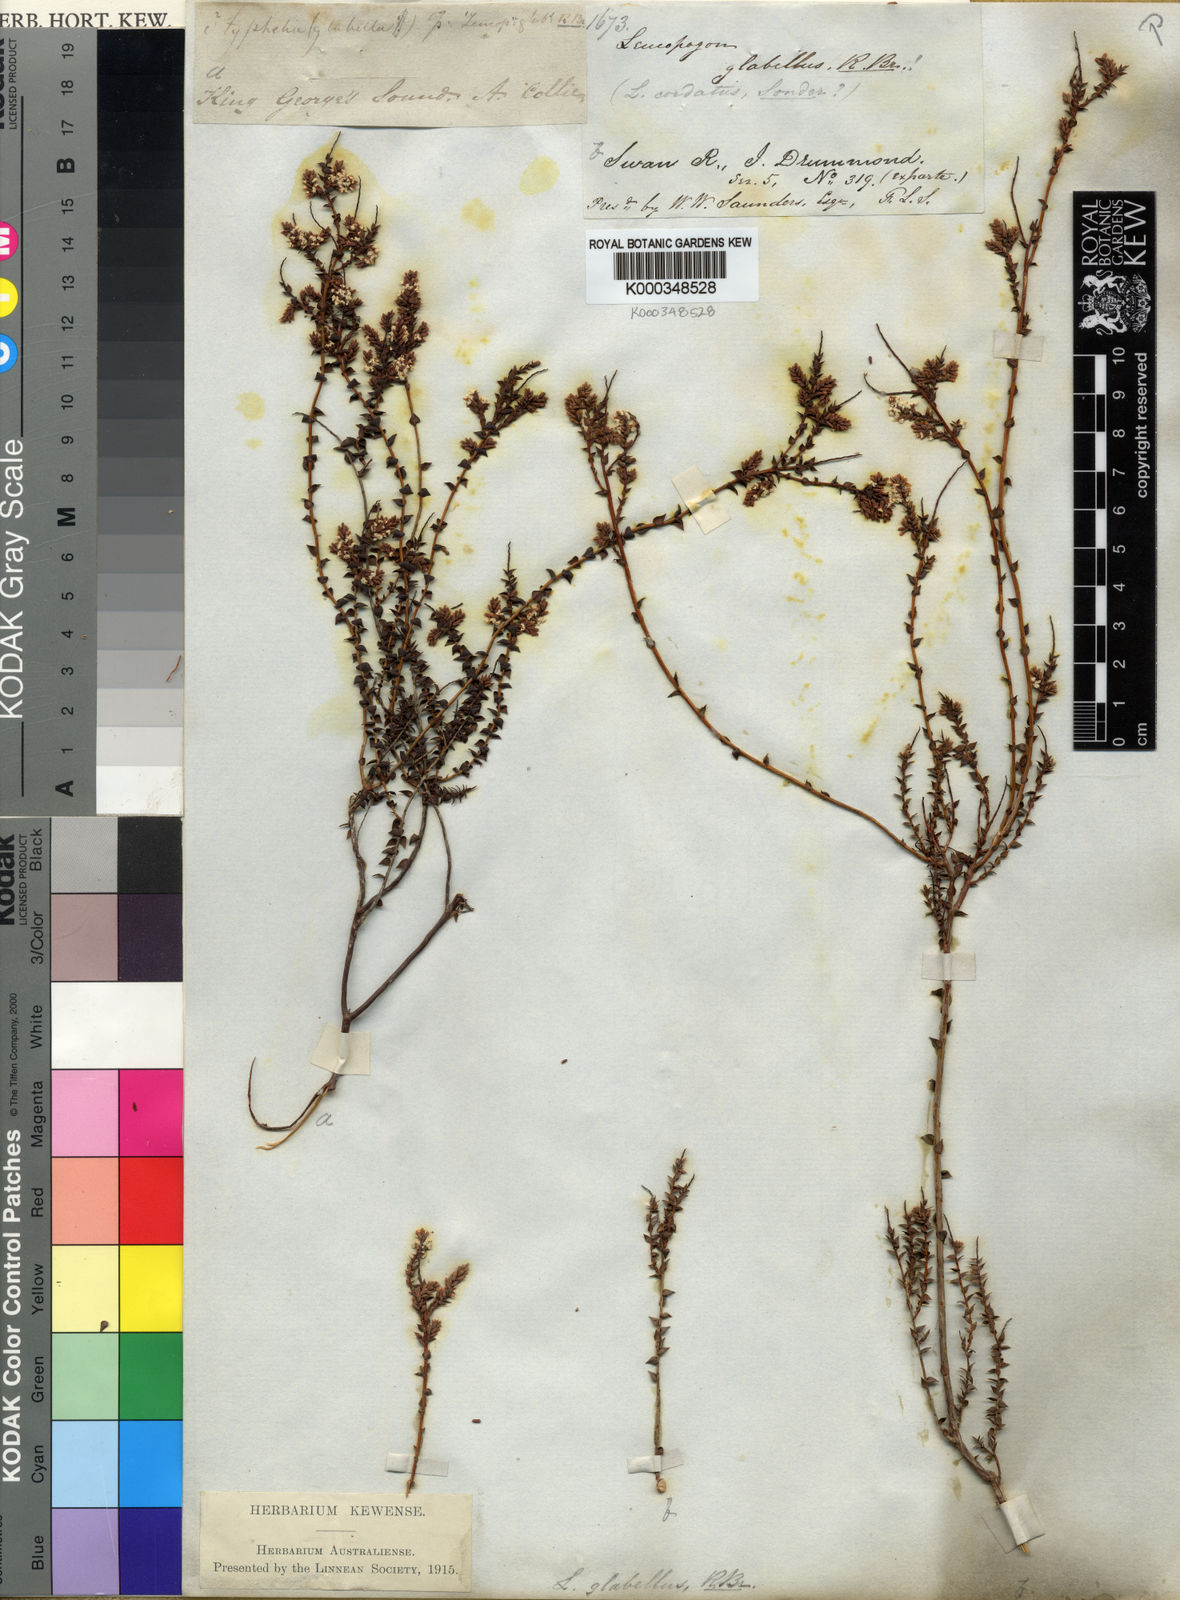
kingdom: Plantae
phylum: Tracheophyta
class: Magnoliopsida
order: Ericales
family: Ericaceae
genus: Leucopogon
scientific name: Leucopogon glabellus
